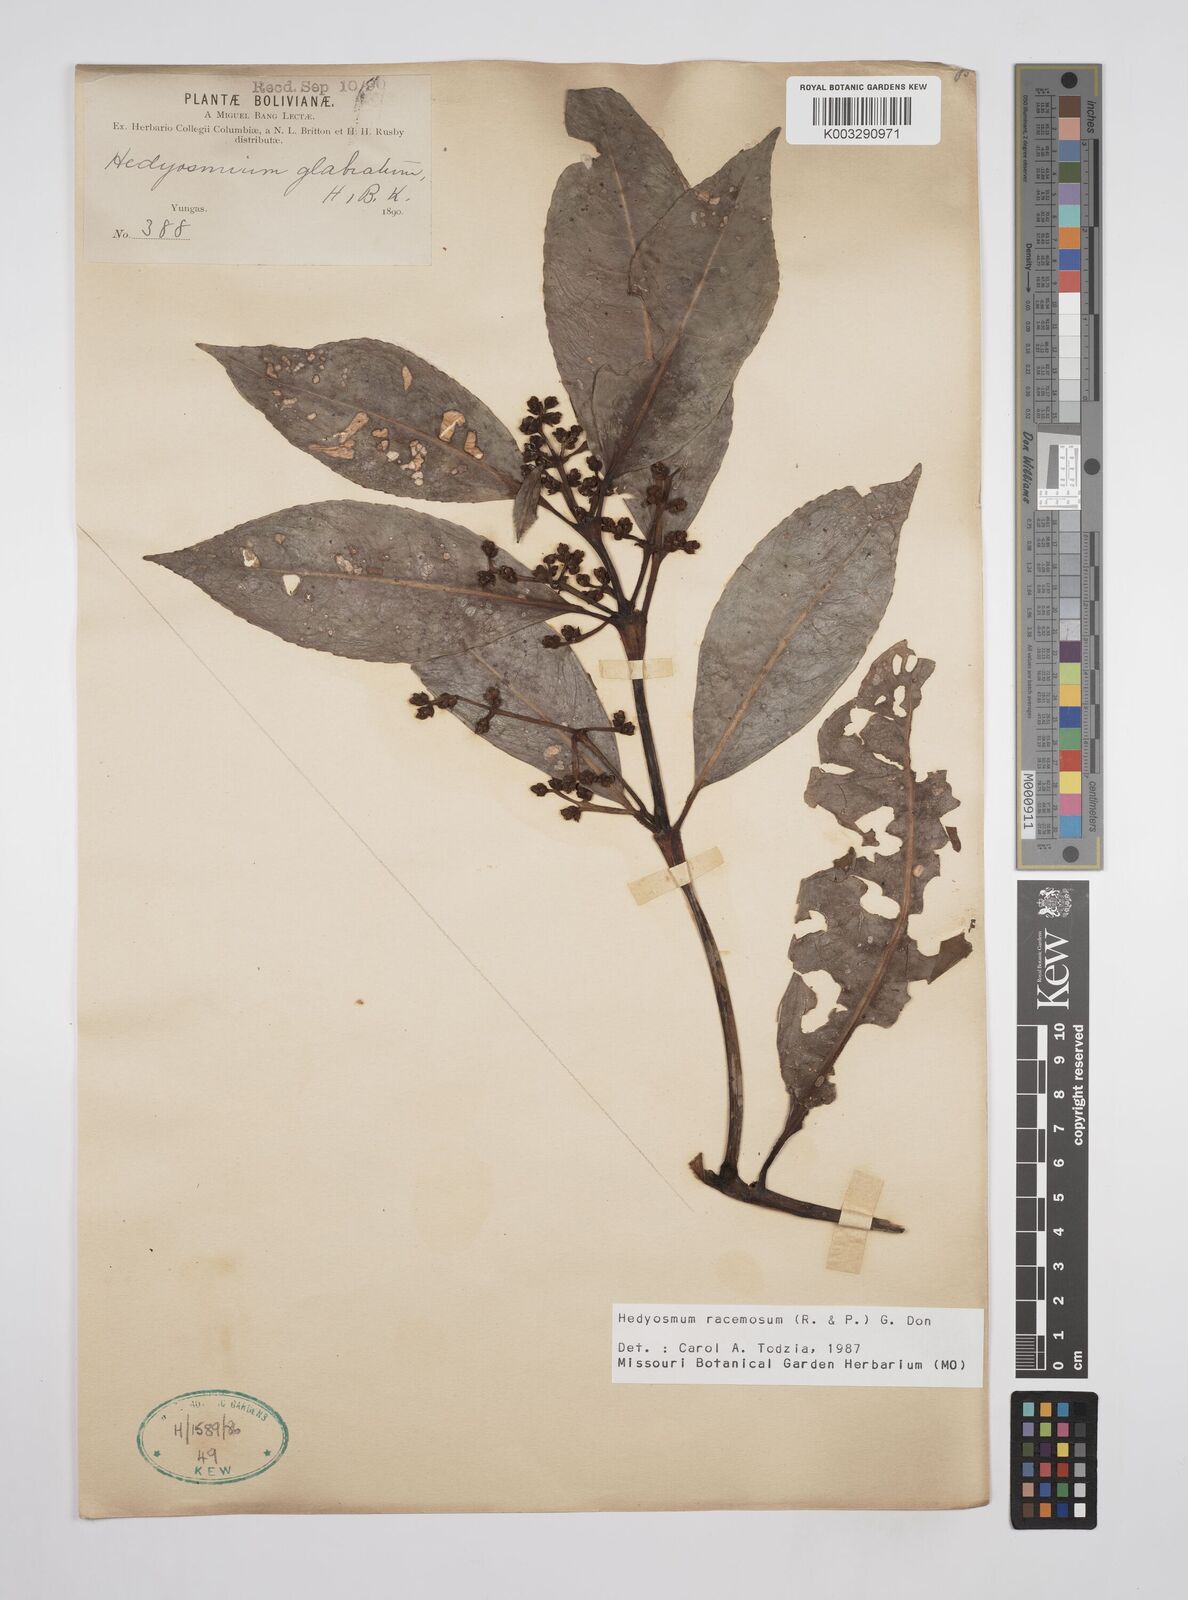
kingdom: Plantae
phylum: Tracheophyta
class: Magnoliopsida
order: Chloranthales
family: Chloranthaceae
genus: Hedyosmum
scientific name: Hedyosmum racemosum
